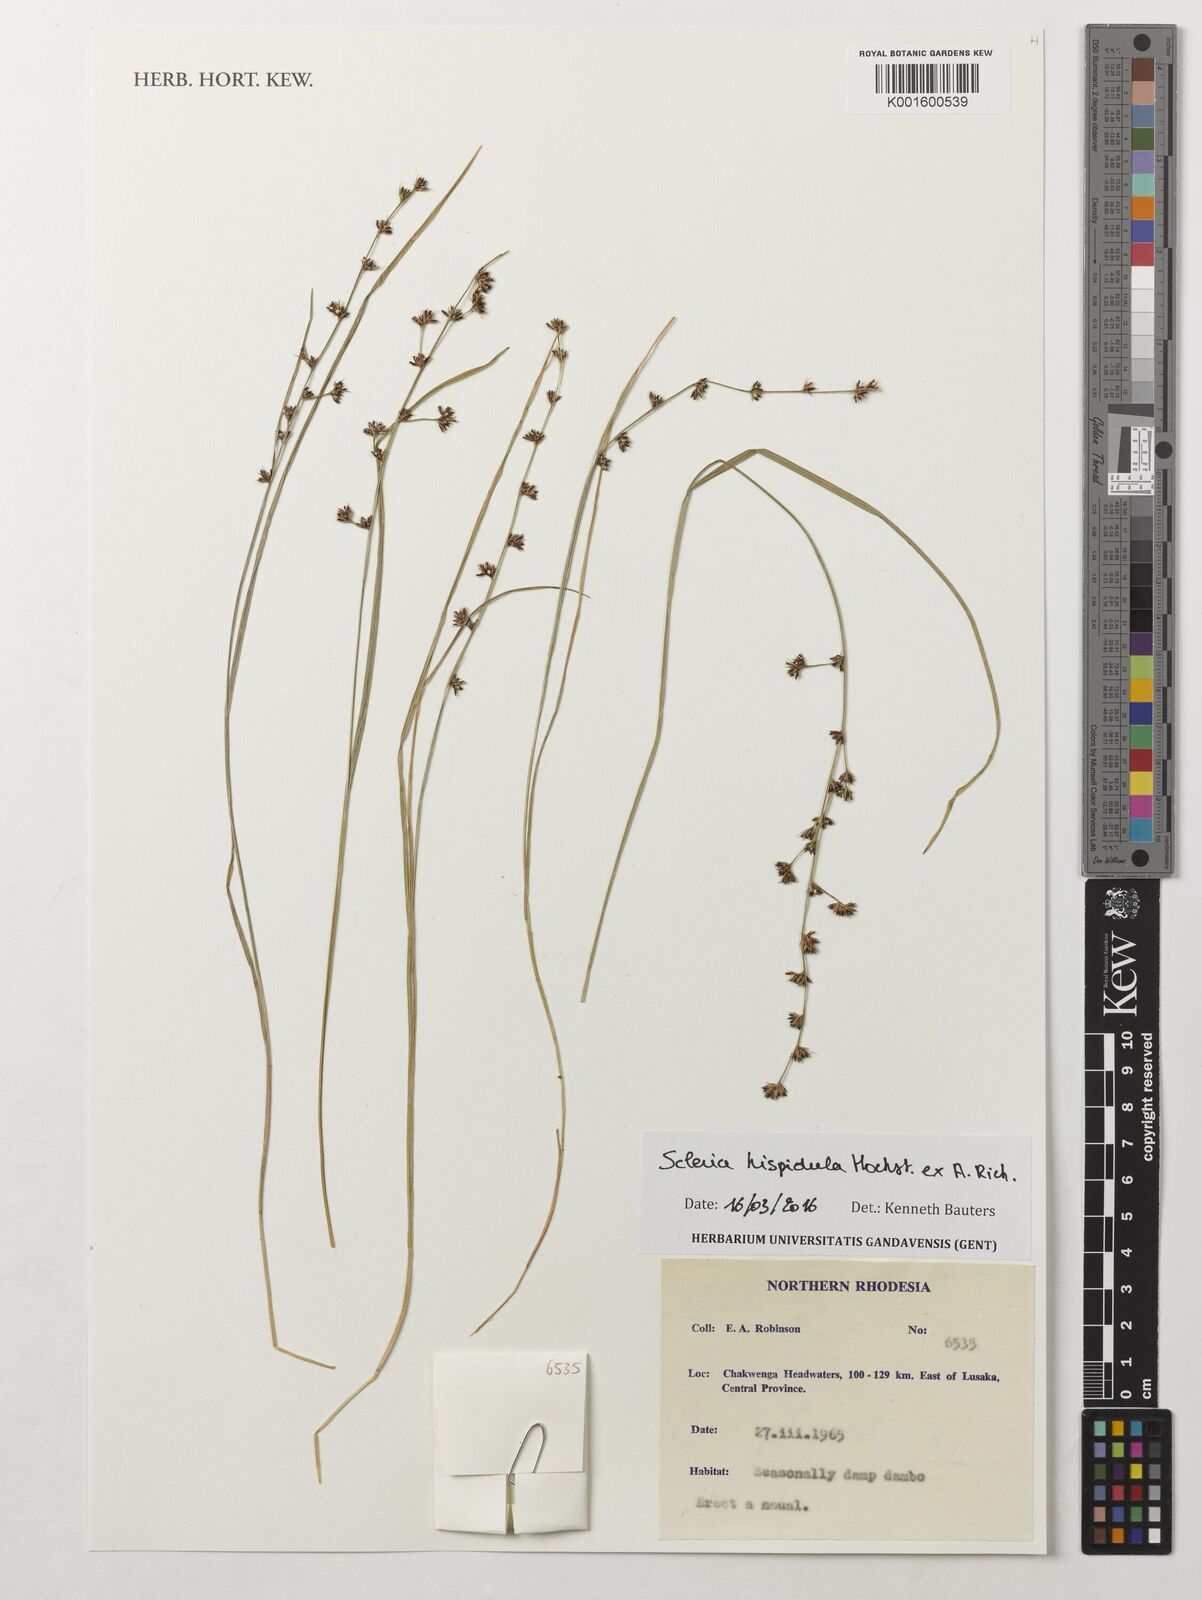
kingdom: Plantae
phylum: Tracheophyta
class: Liliopsida
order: Poales
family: Cyperaceae
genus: Scleria
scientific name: Scleria hispidula
